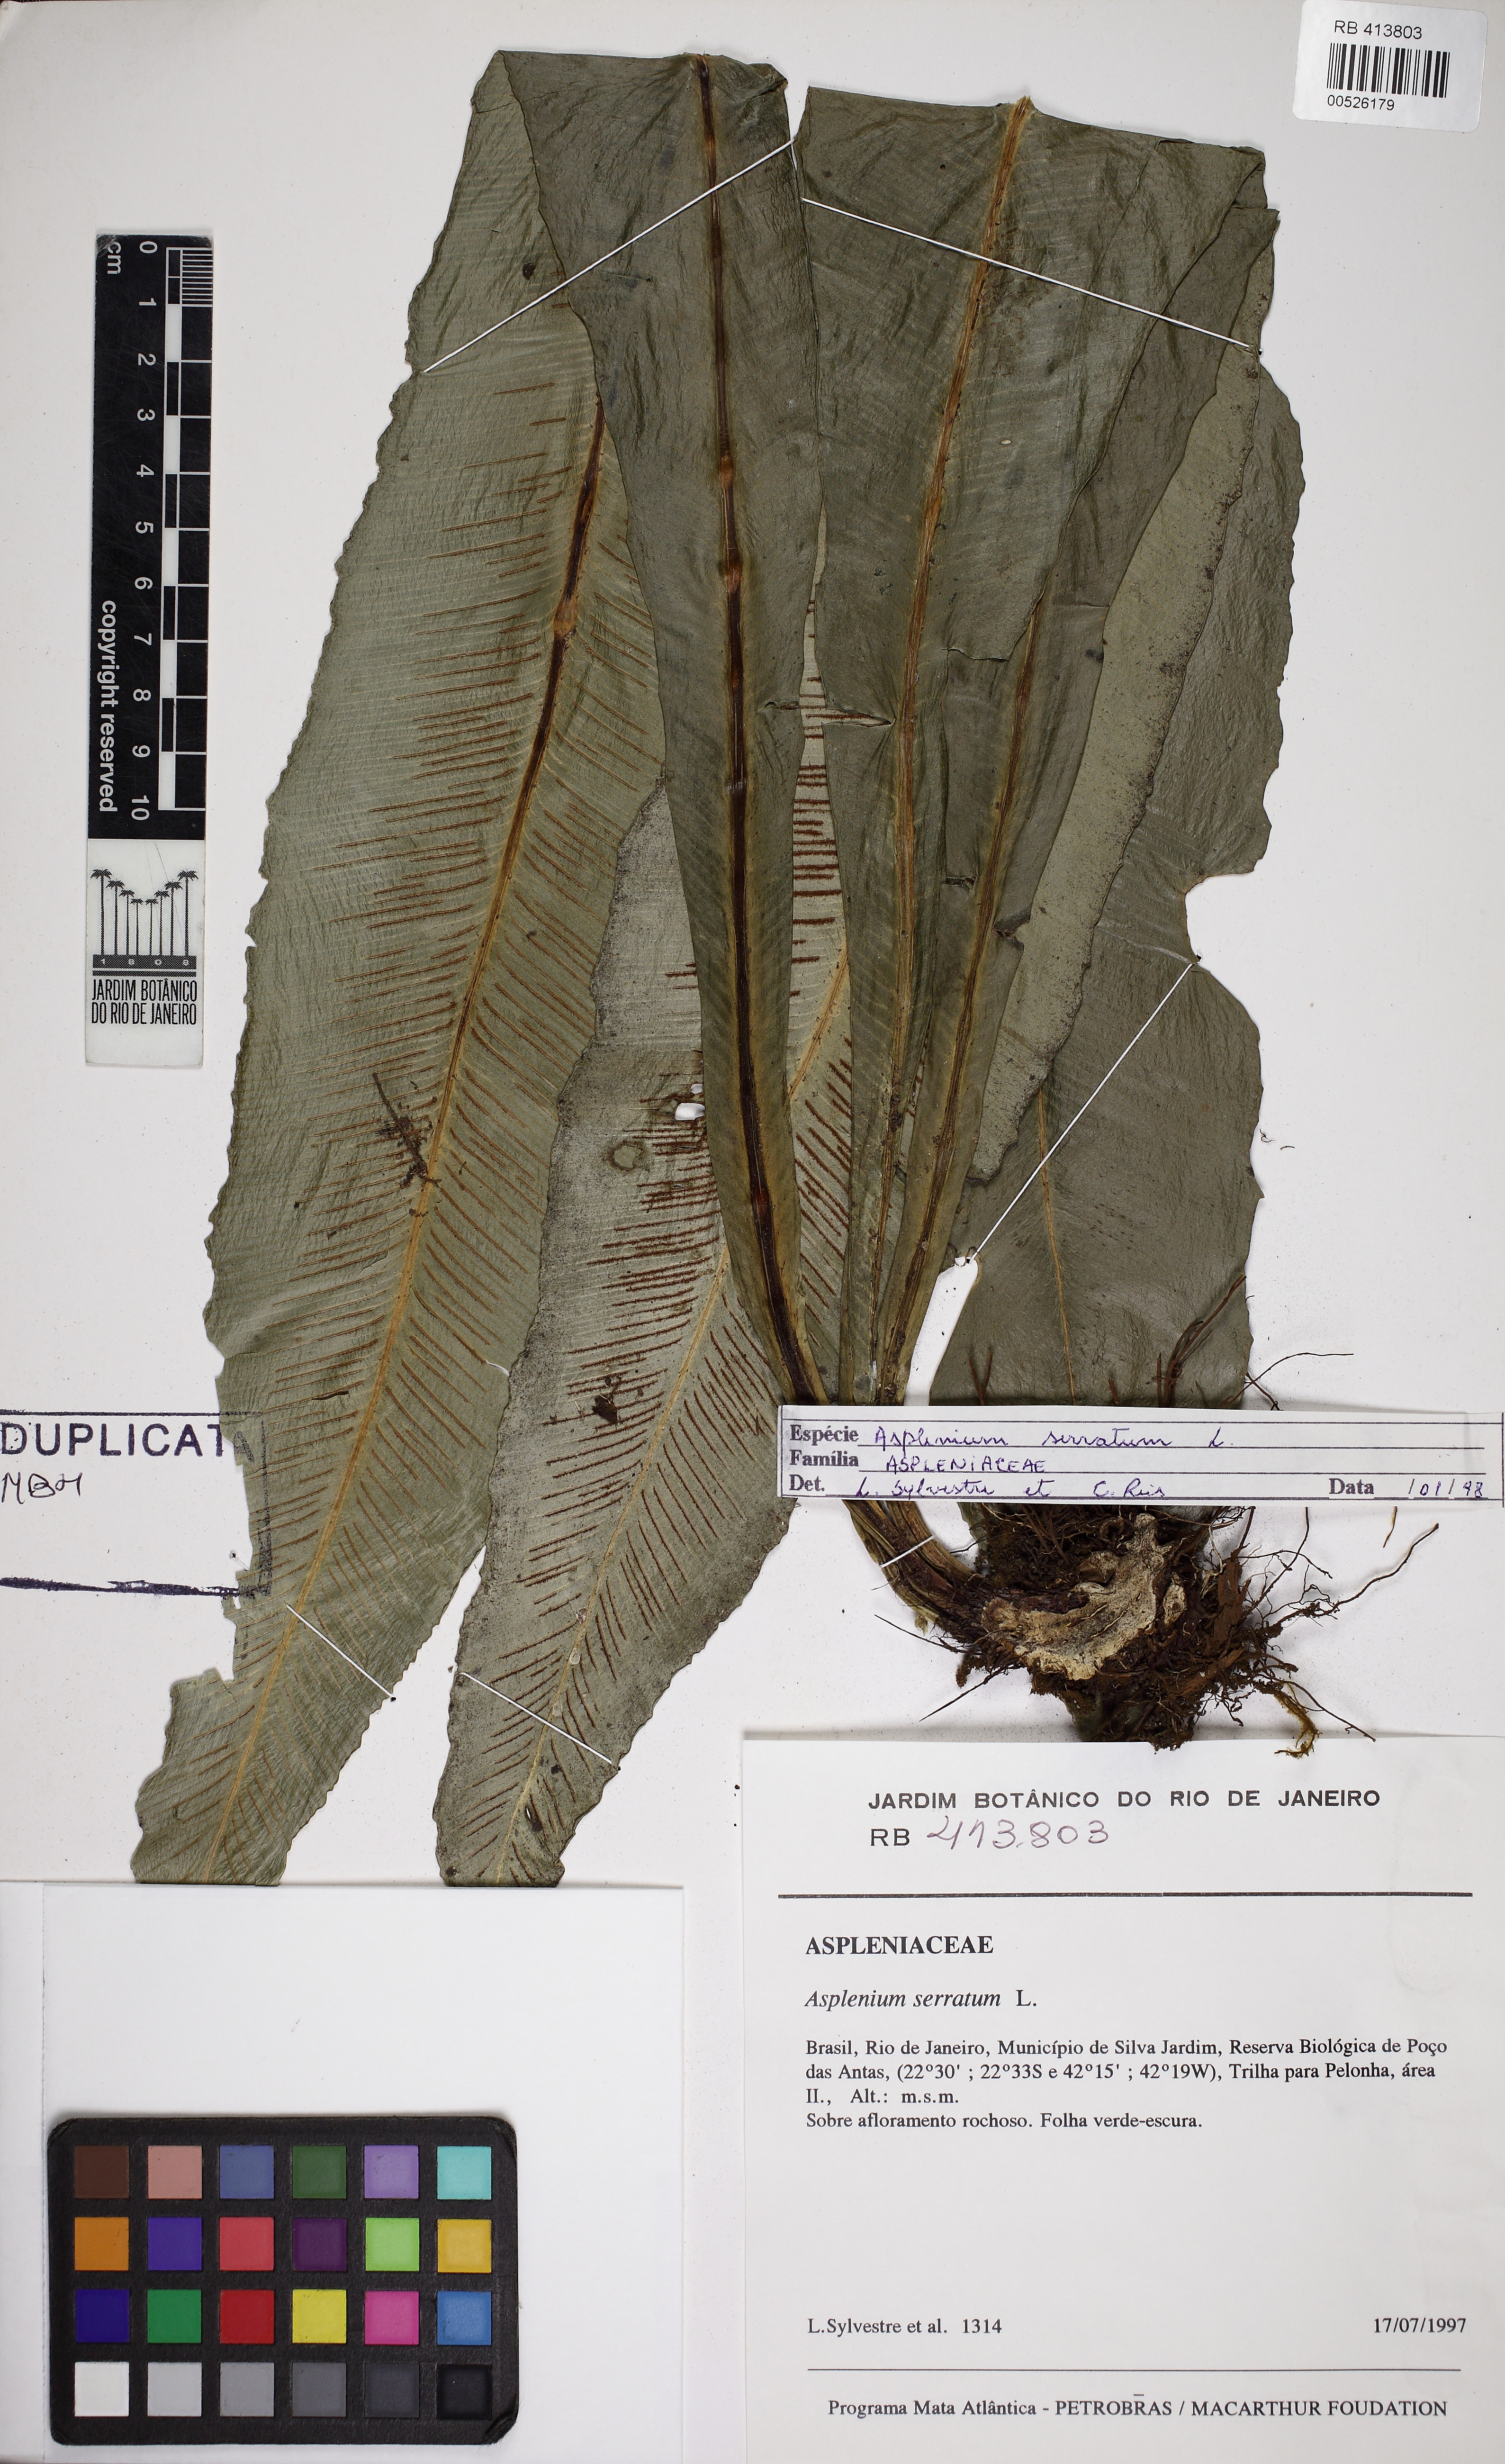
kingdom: Plantae
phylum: Tracheophyta
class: Polypodiopsida
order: Polypodiales
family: Aspleniaceae
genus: Asplenium
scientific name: Asplenium coronatum
